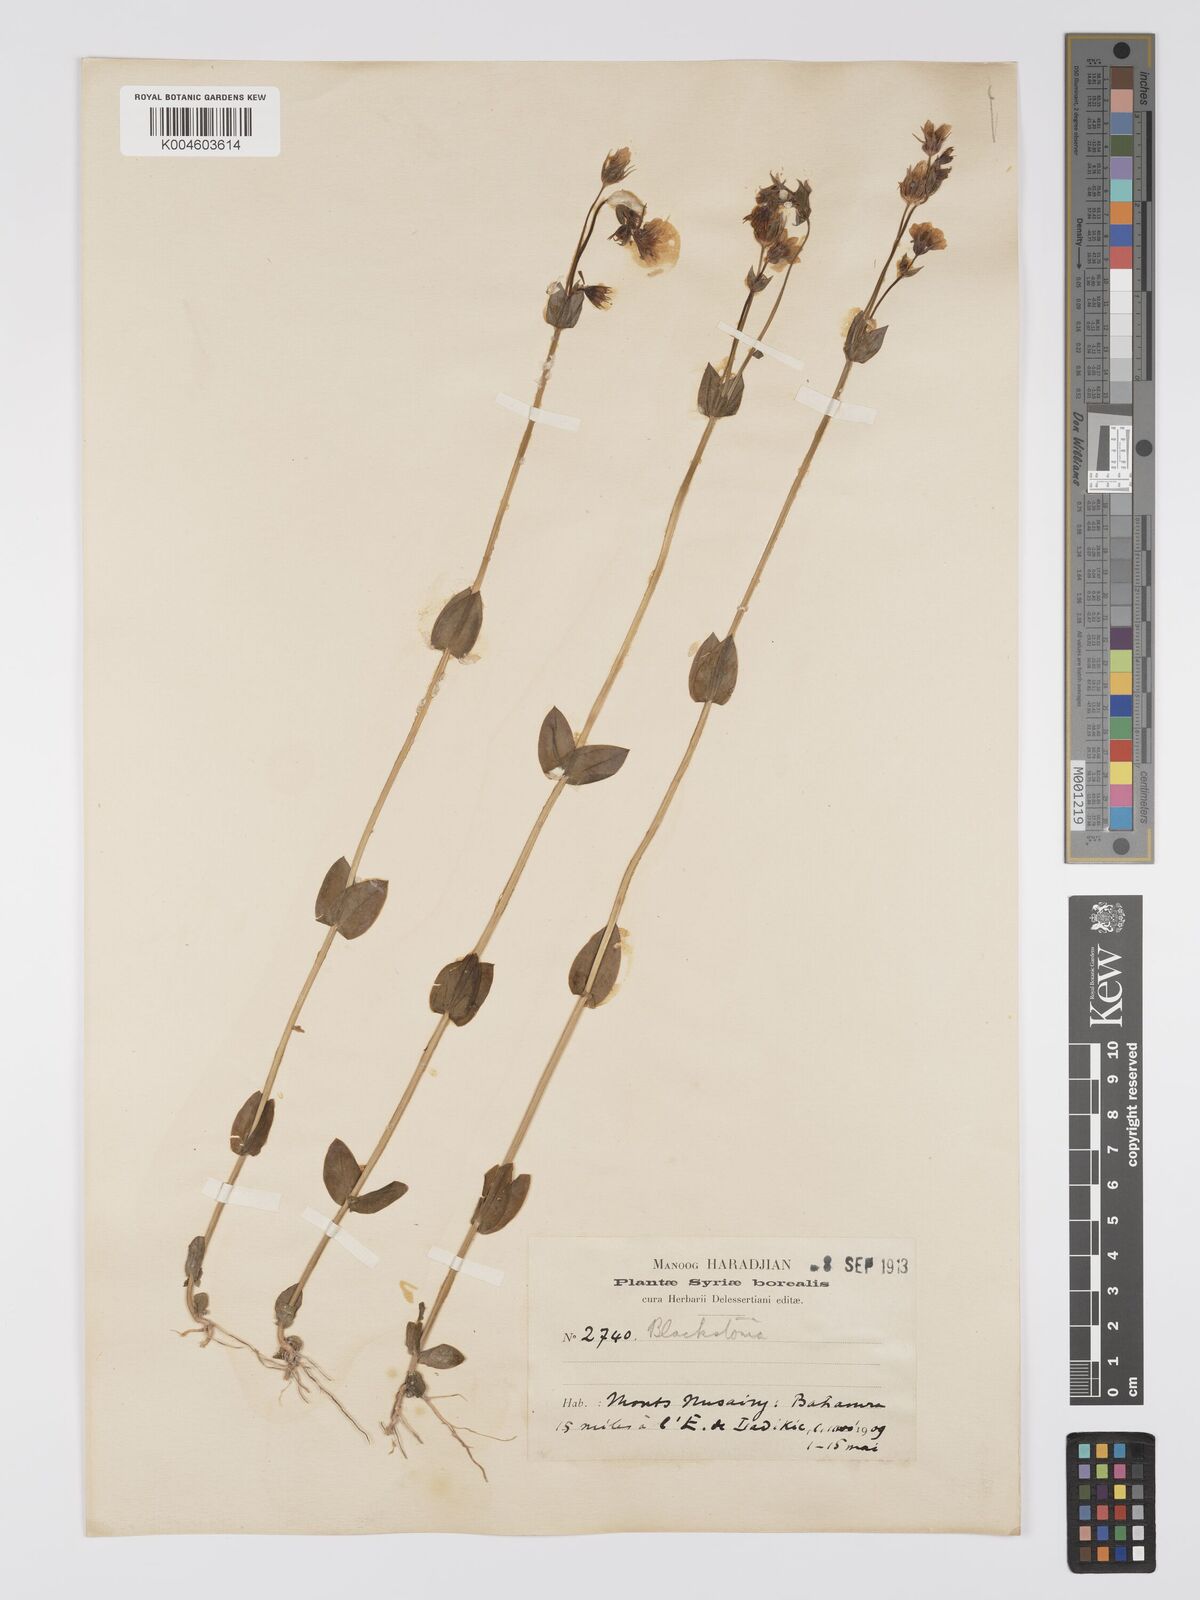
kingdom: Plantae
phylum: Tracheophyta
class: Magnoliopsida
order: Gentianales
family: Gentianaceae
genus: Blackstonia
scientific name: Blackstonia acuminata
